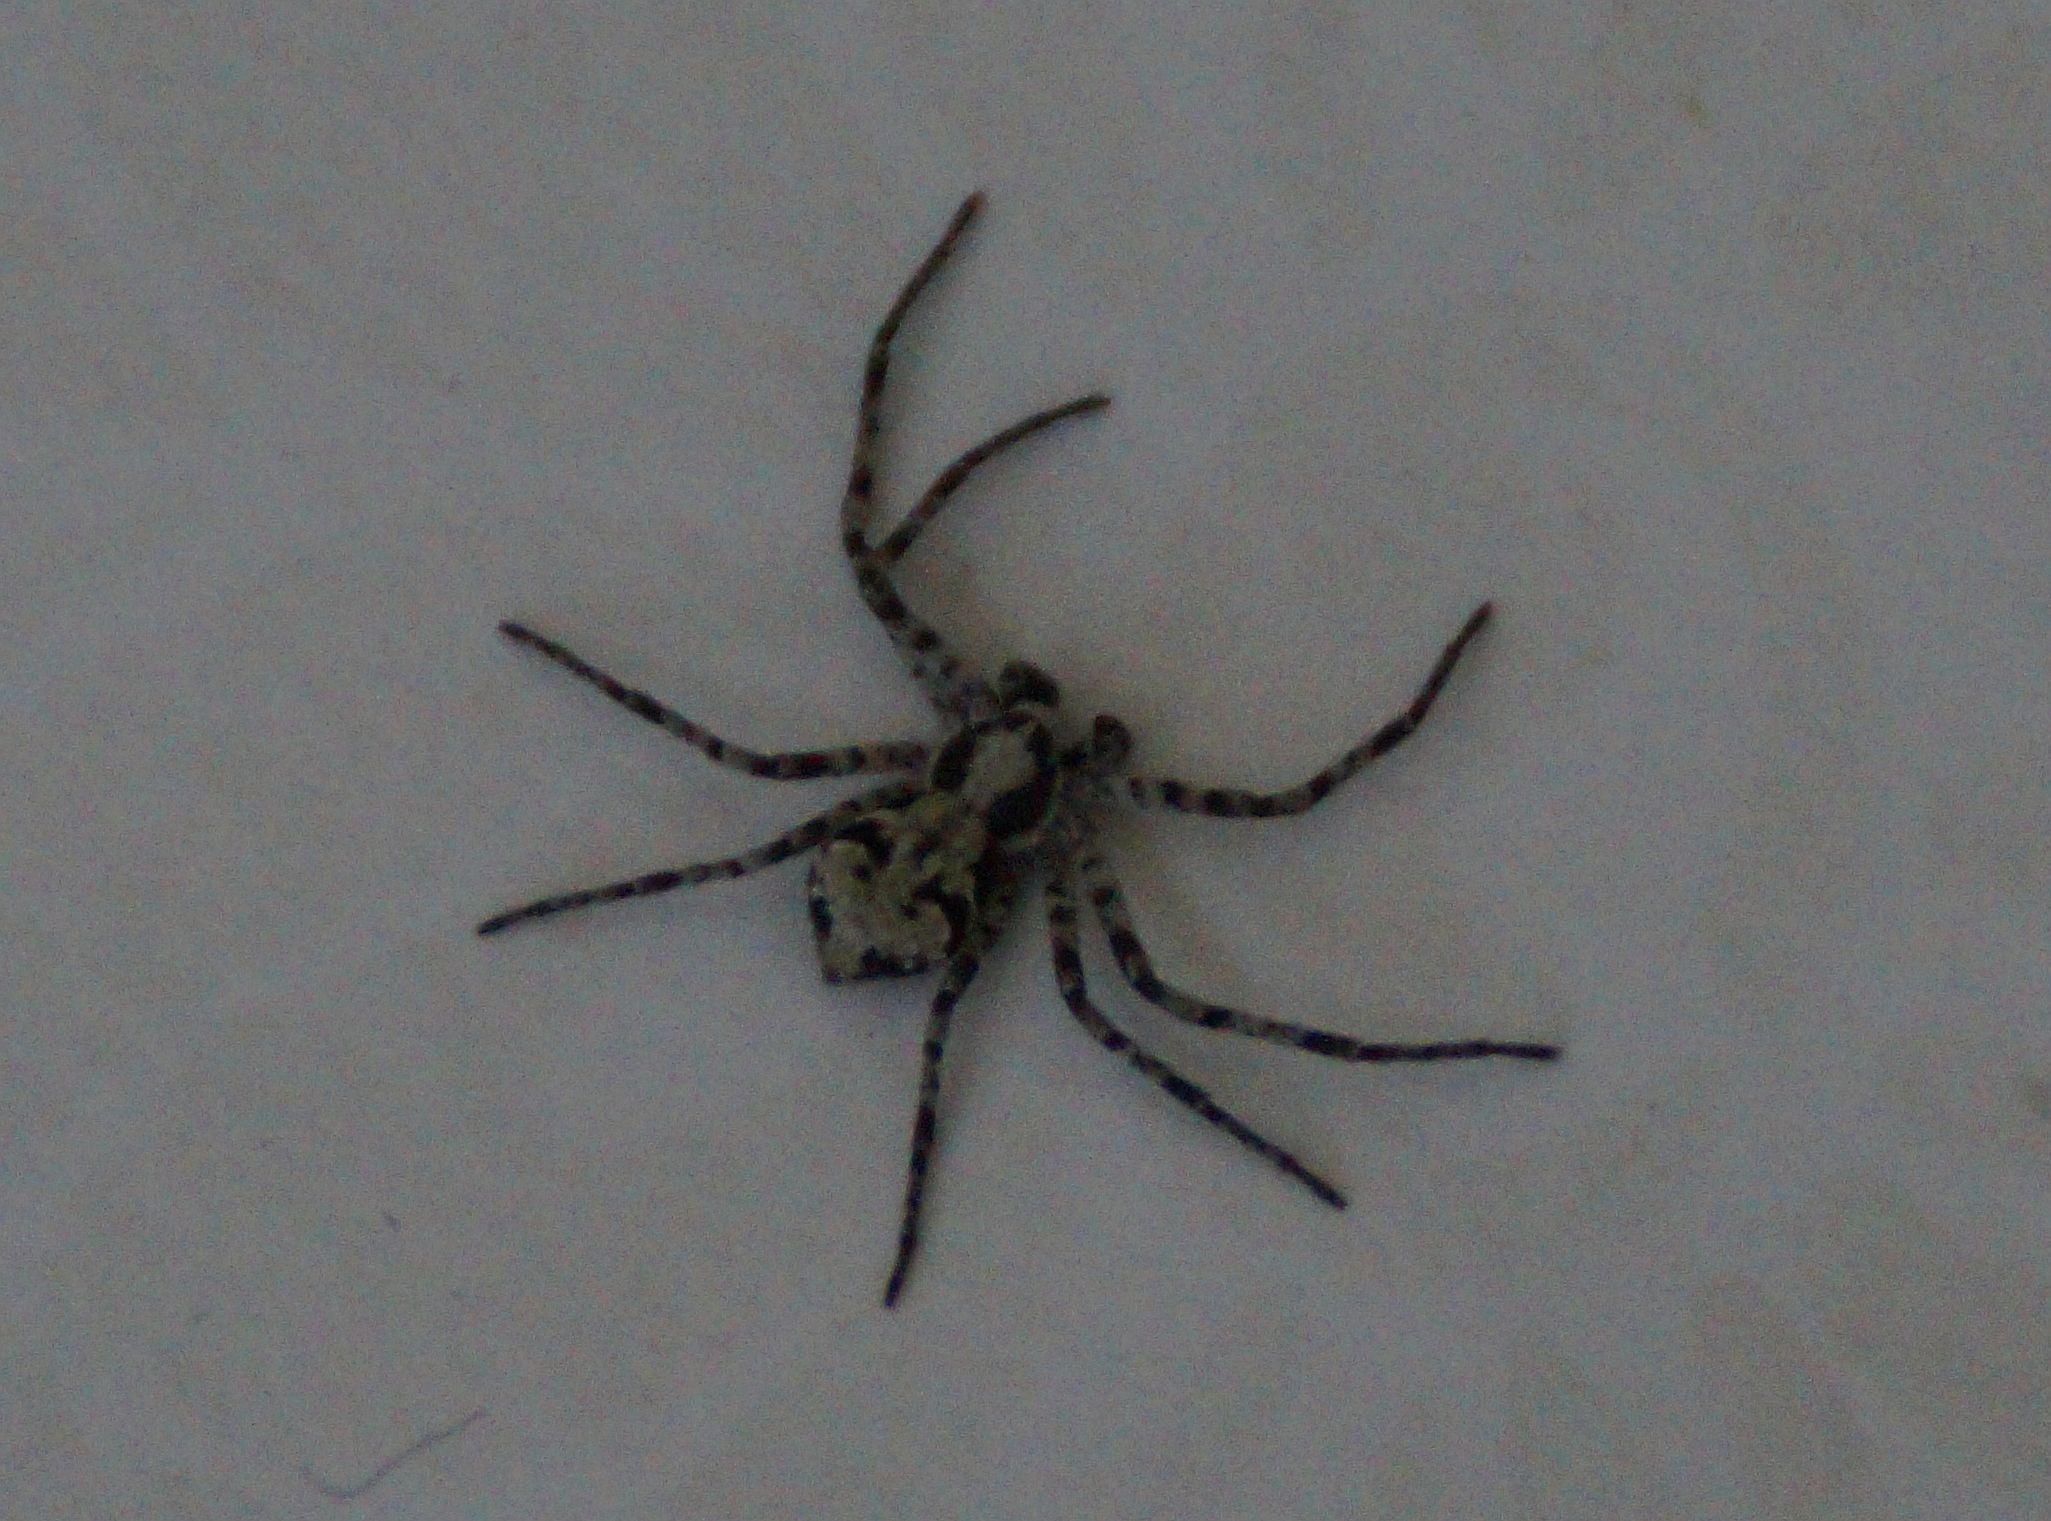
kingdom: Animalia
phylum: Arthropoda
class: Arachnida
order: Araneae
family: Philodromidae
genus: Philodromus
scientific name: Philodromus margaritatus
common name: Dødningehoved-edderkop
